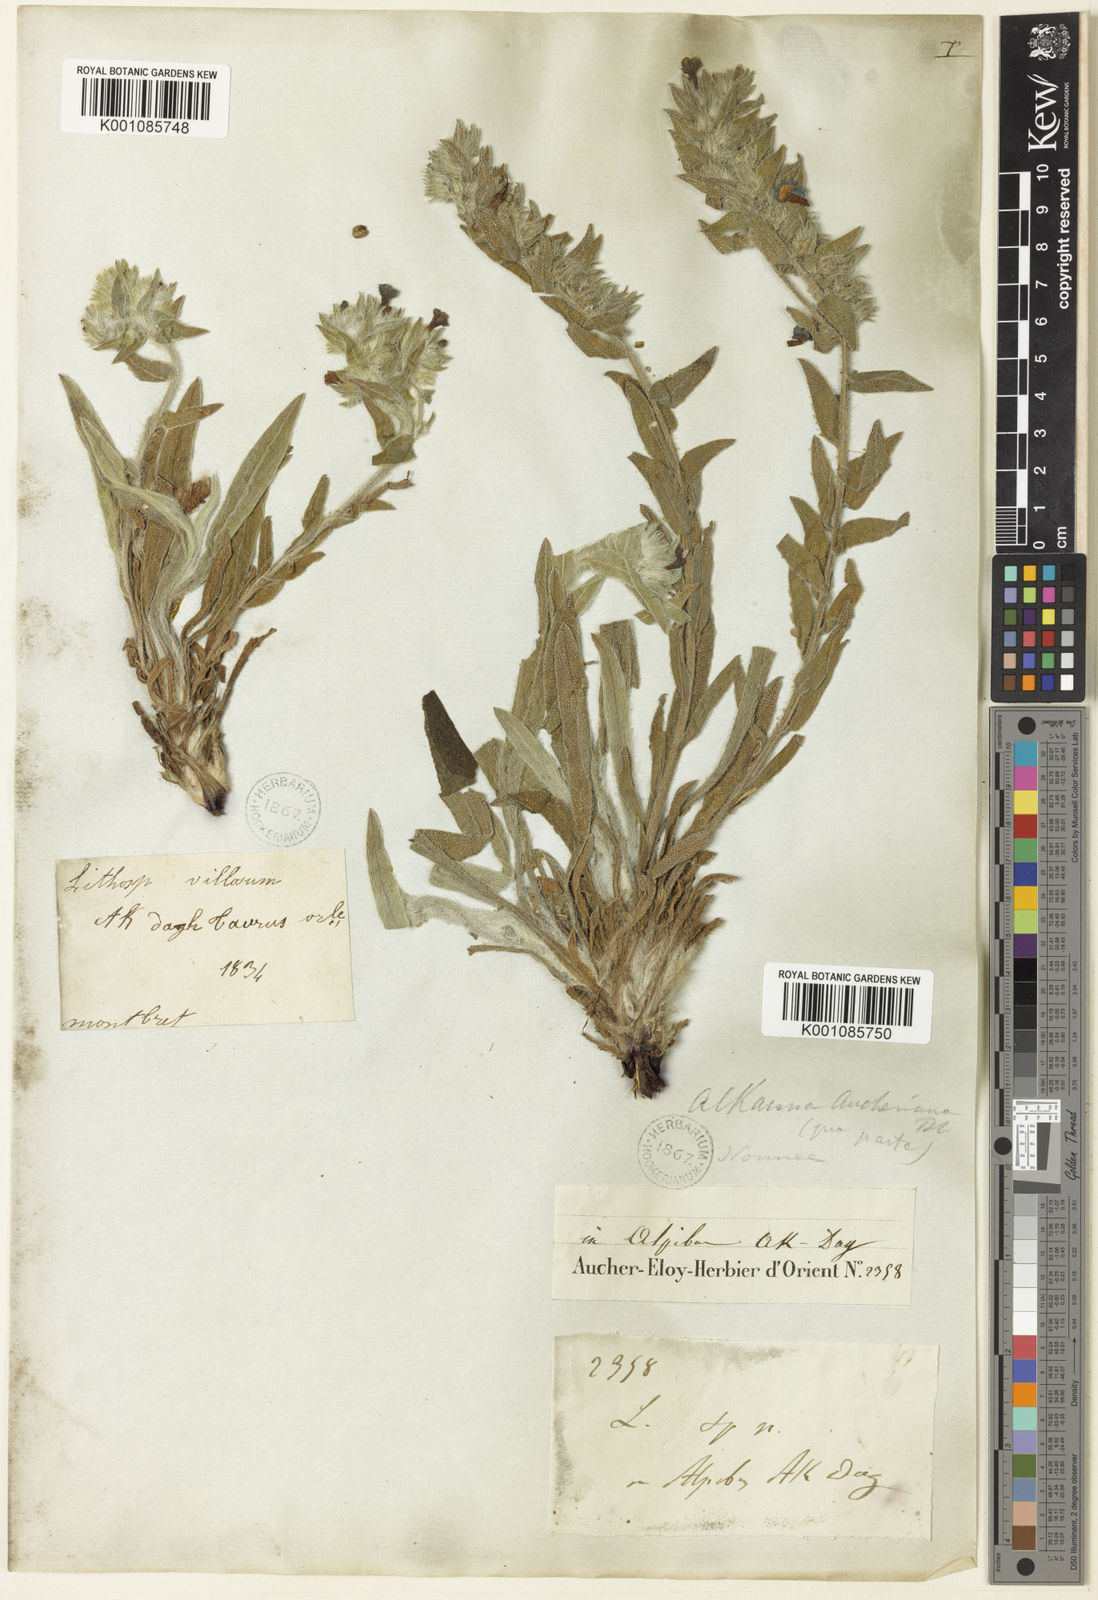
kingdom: Plantae
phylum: Tracheophyta
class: Magnoliopsida
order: Boraginales
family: Boraginaceae
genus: Alkanna
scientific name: Alkanna strigosa
